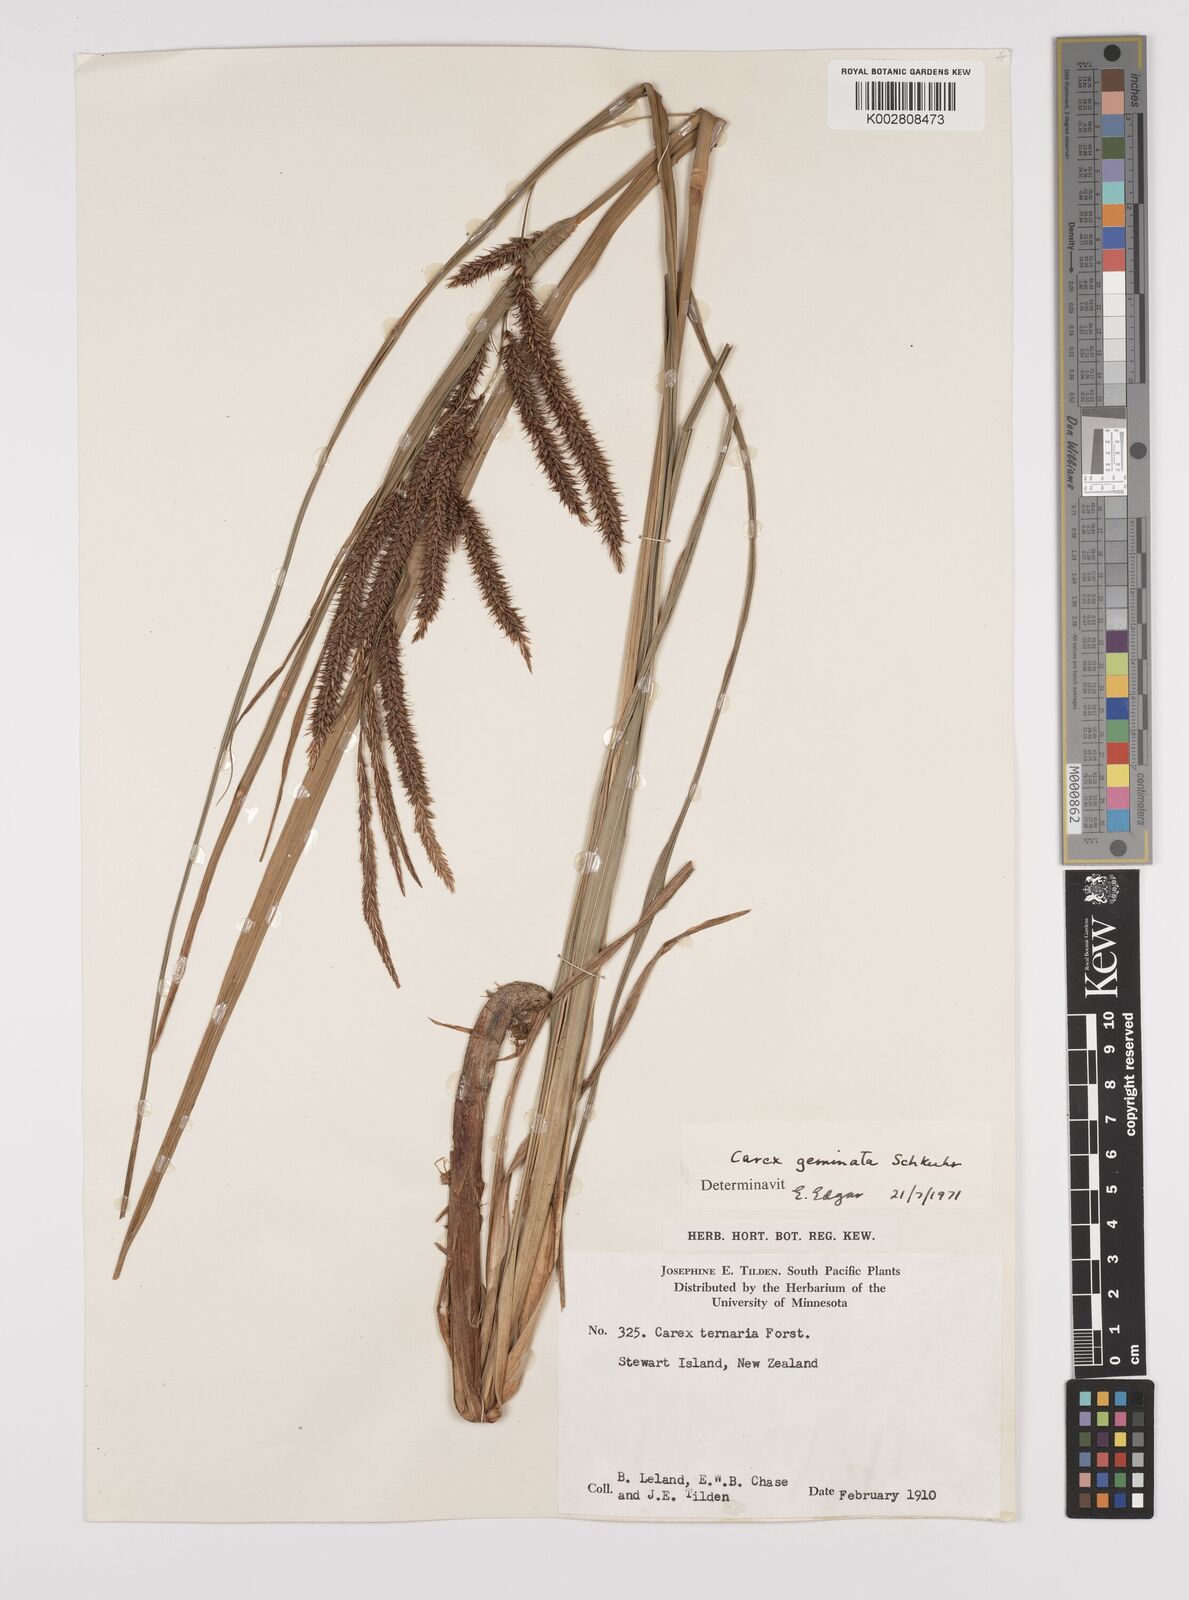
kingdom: Plantae
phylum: Tracheophyta
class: Liliopsida
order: Poales
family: Cyperaceae
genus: Carex
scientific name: Carex geminata
